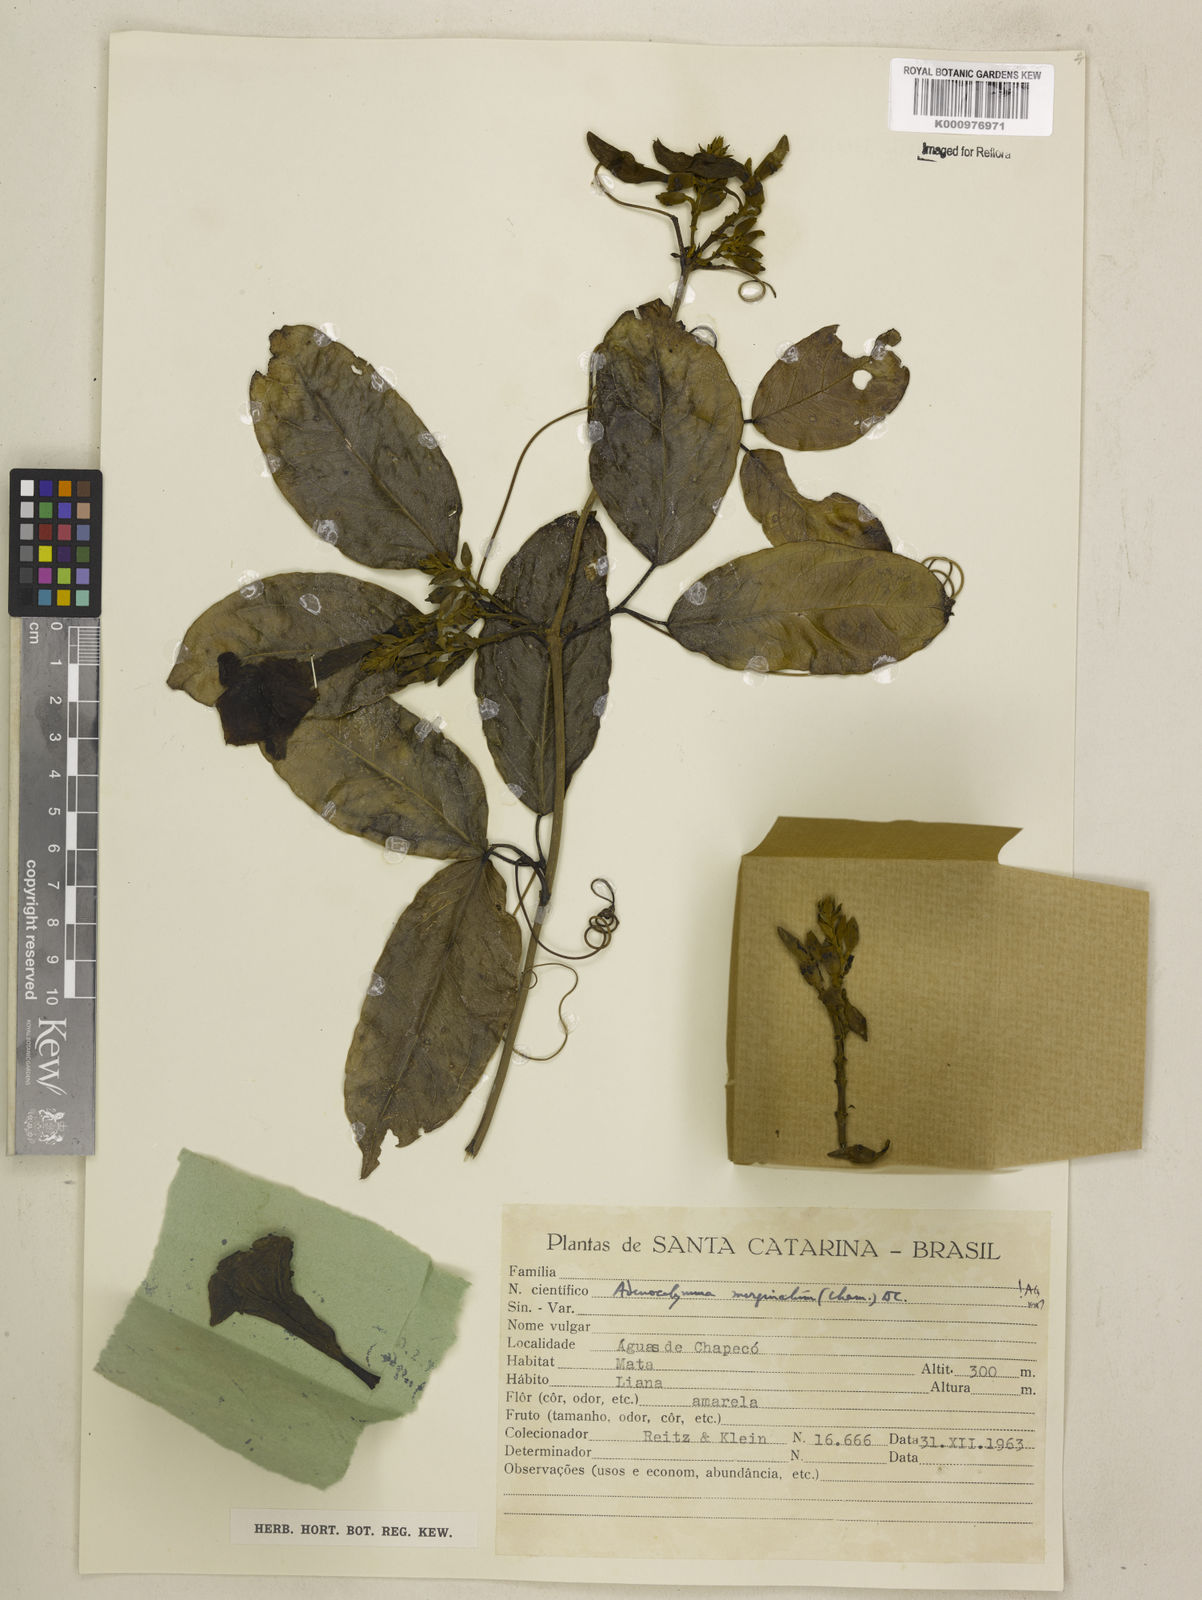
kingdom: Plantae
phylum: Tracheophyta
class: Magnoliopsida
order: Lamiales
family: Bignoniaceae
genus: Adenocalymma
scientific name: Adenocalymma marginatum
